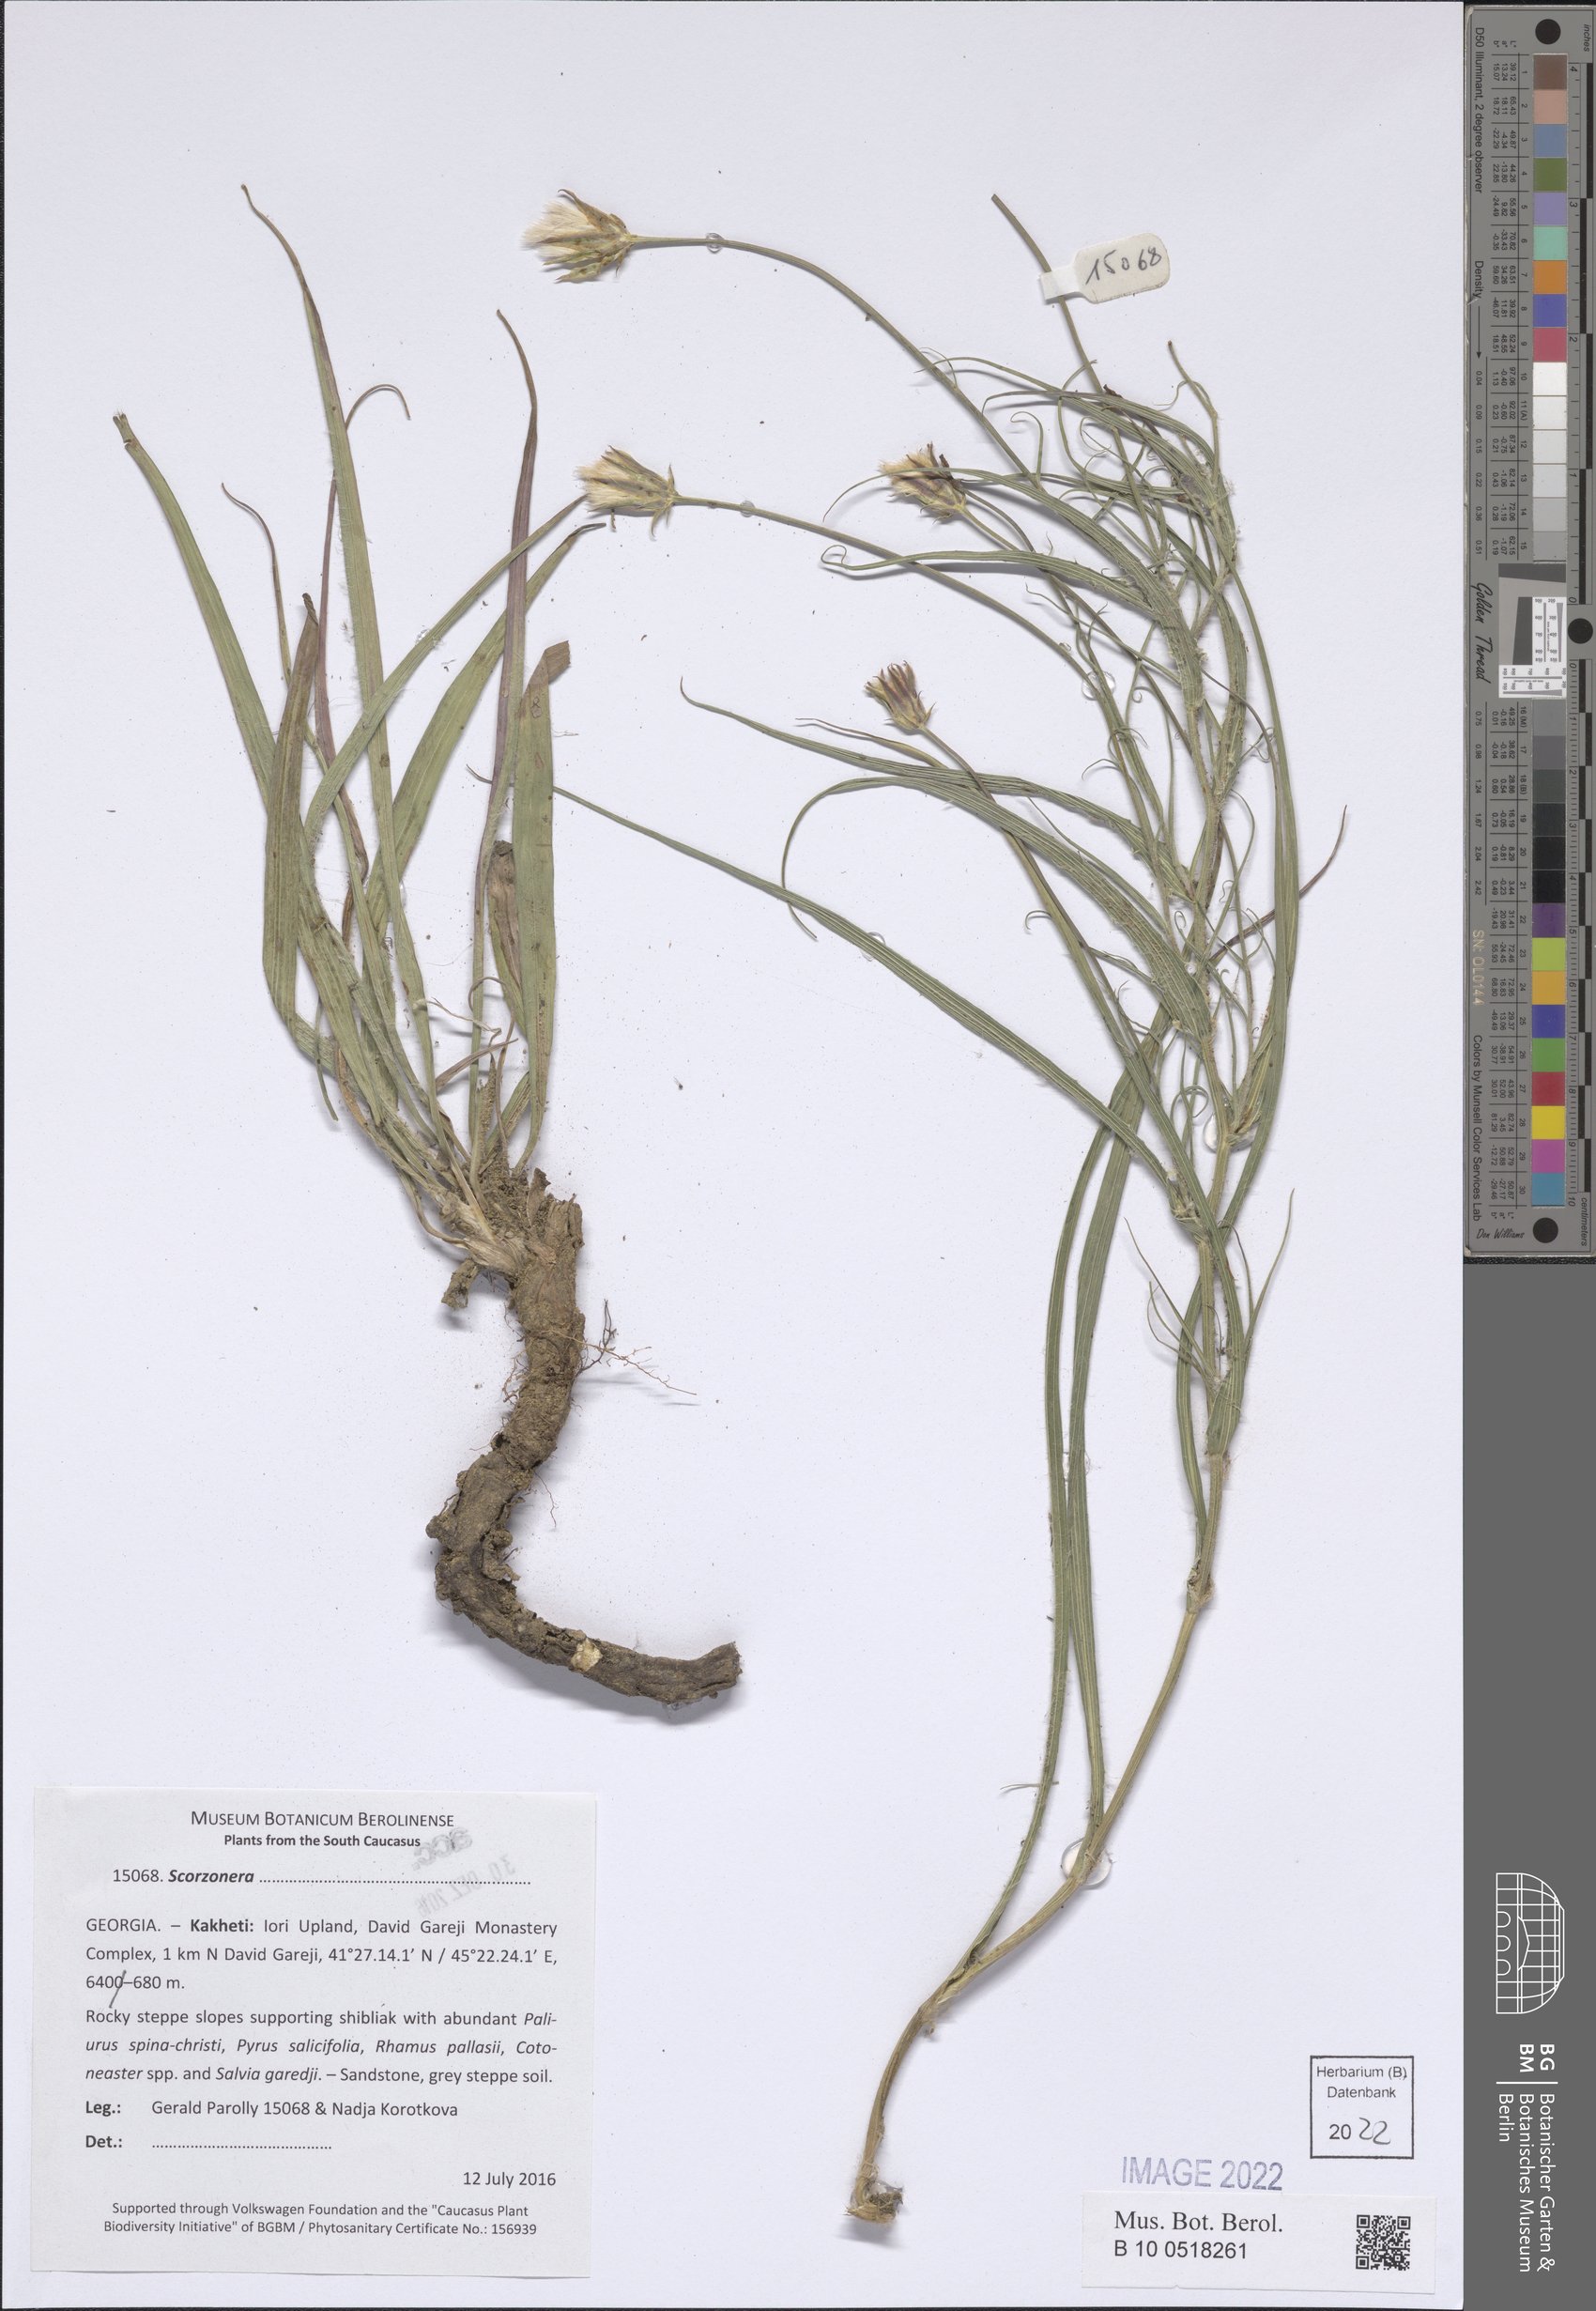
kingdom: Plantae
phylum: Tracheophyta
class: Magnoliopsida
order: Asterales
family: Asteraceae
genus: Scorzonera
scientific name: Scorzonera
